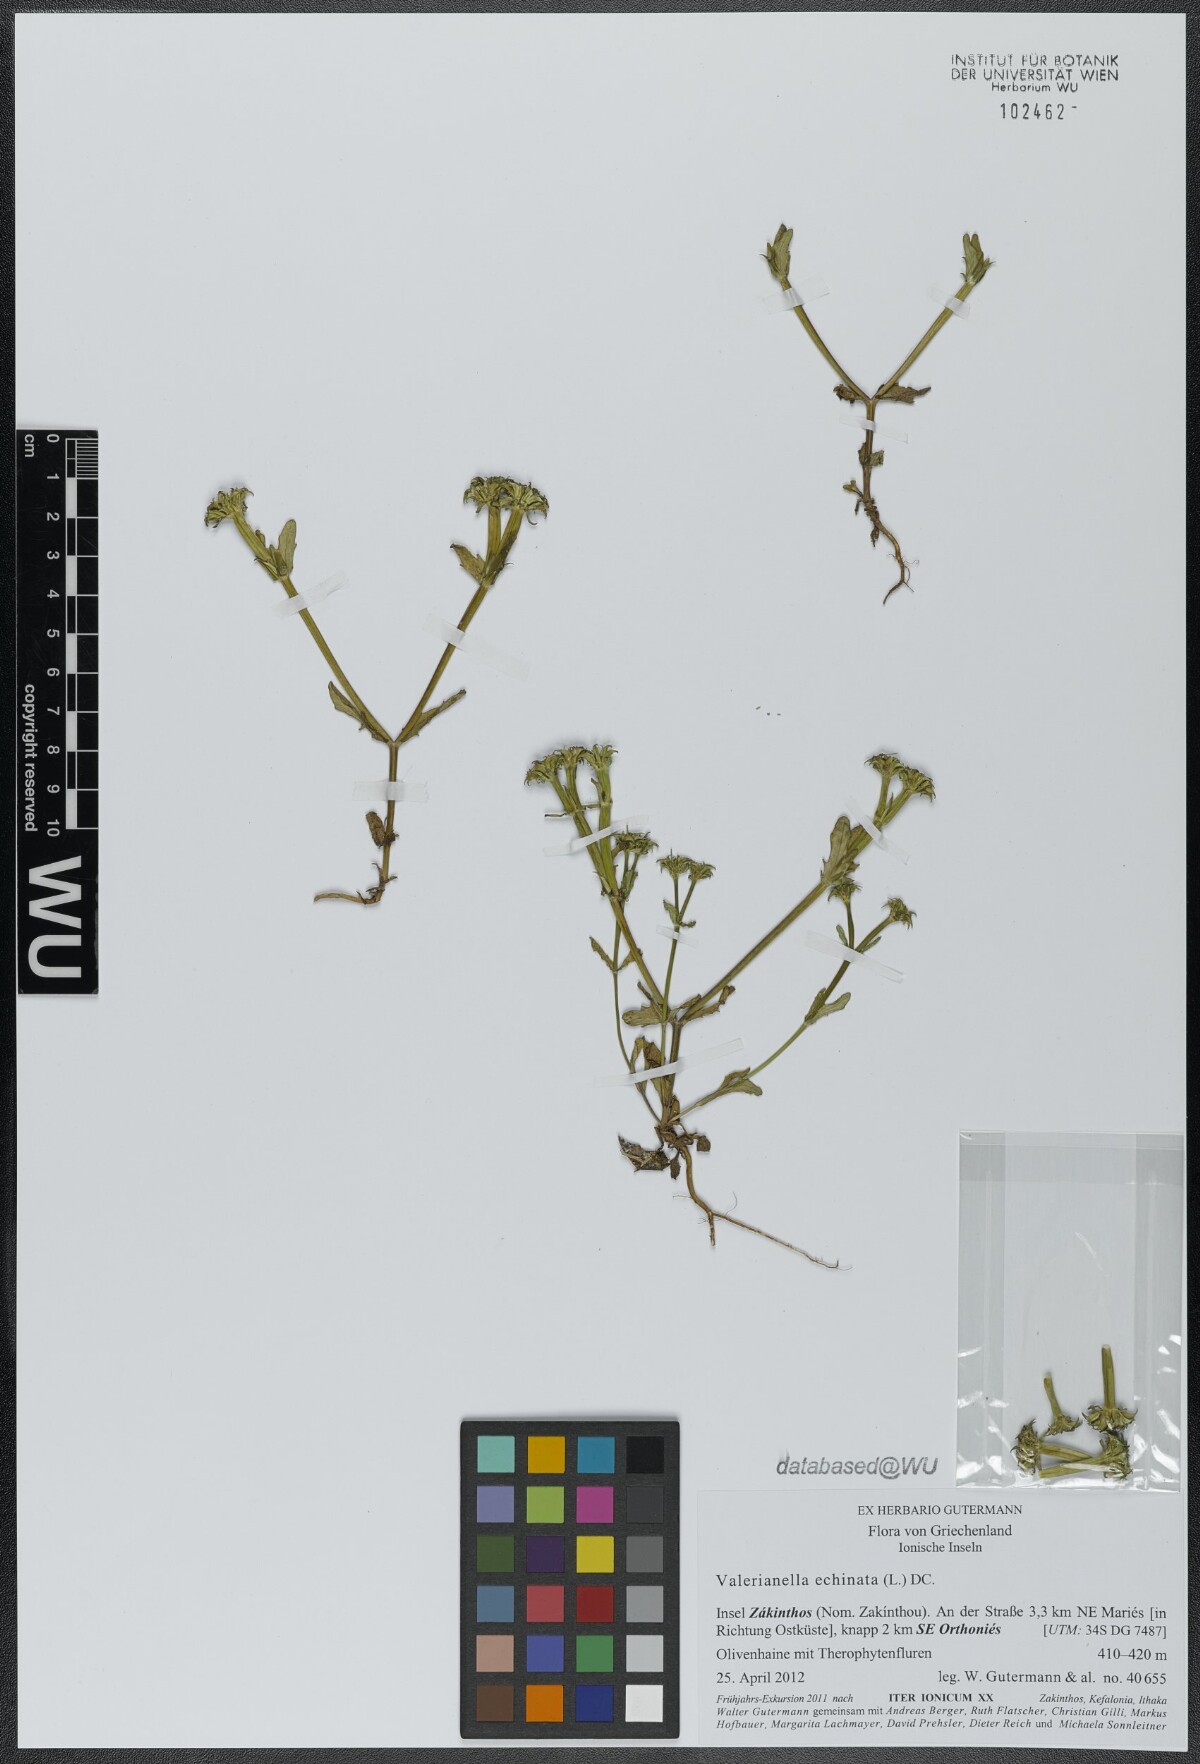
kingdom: Plantae
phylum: Tracheophyta
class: Magnoliopsida
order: Dipsacales
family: Caprifoliaceae
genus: Valerianella
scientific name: Valerianella echinata
